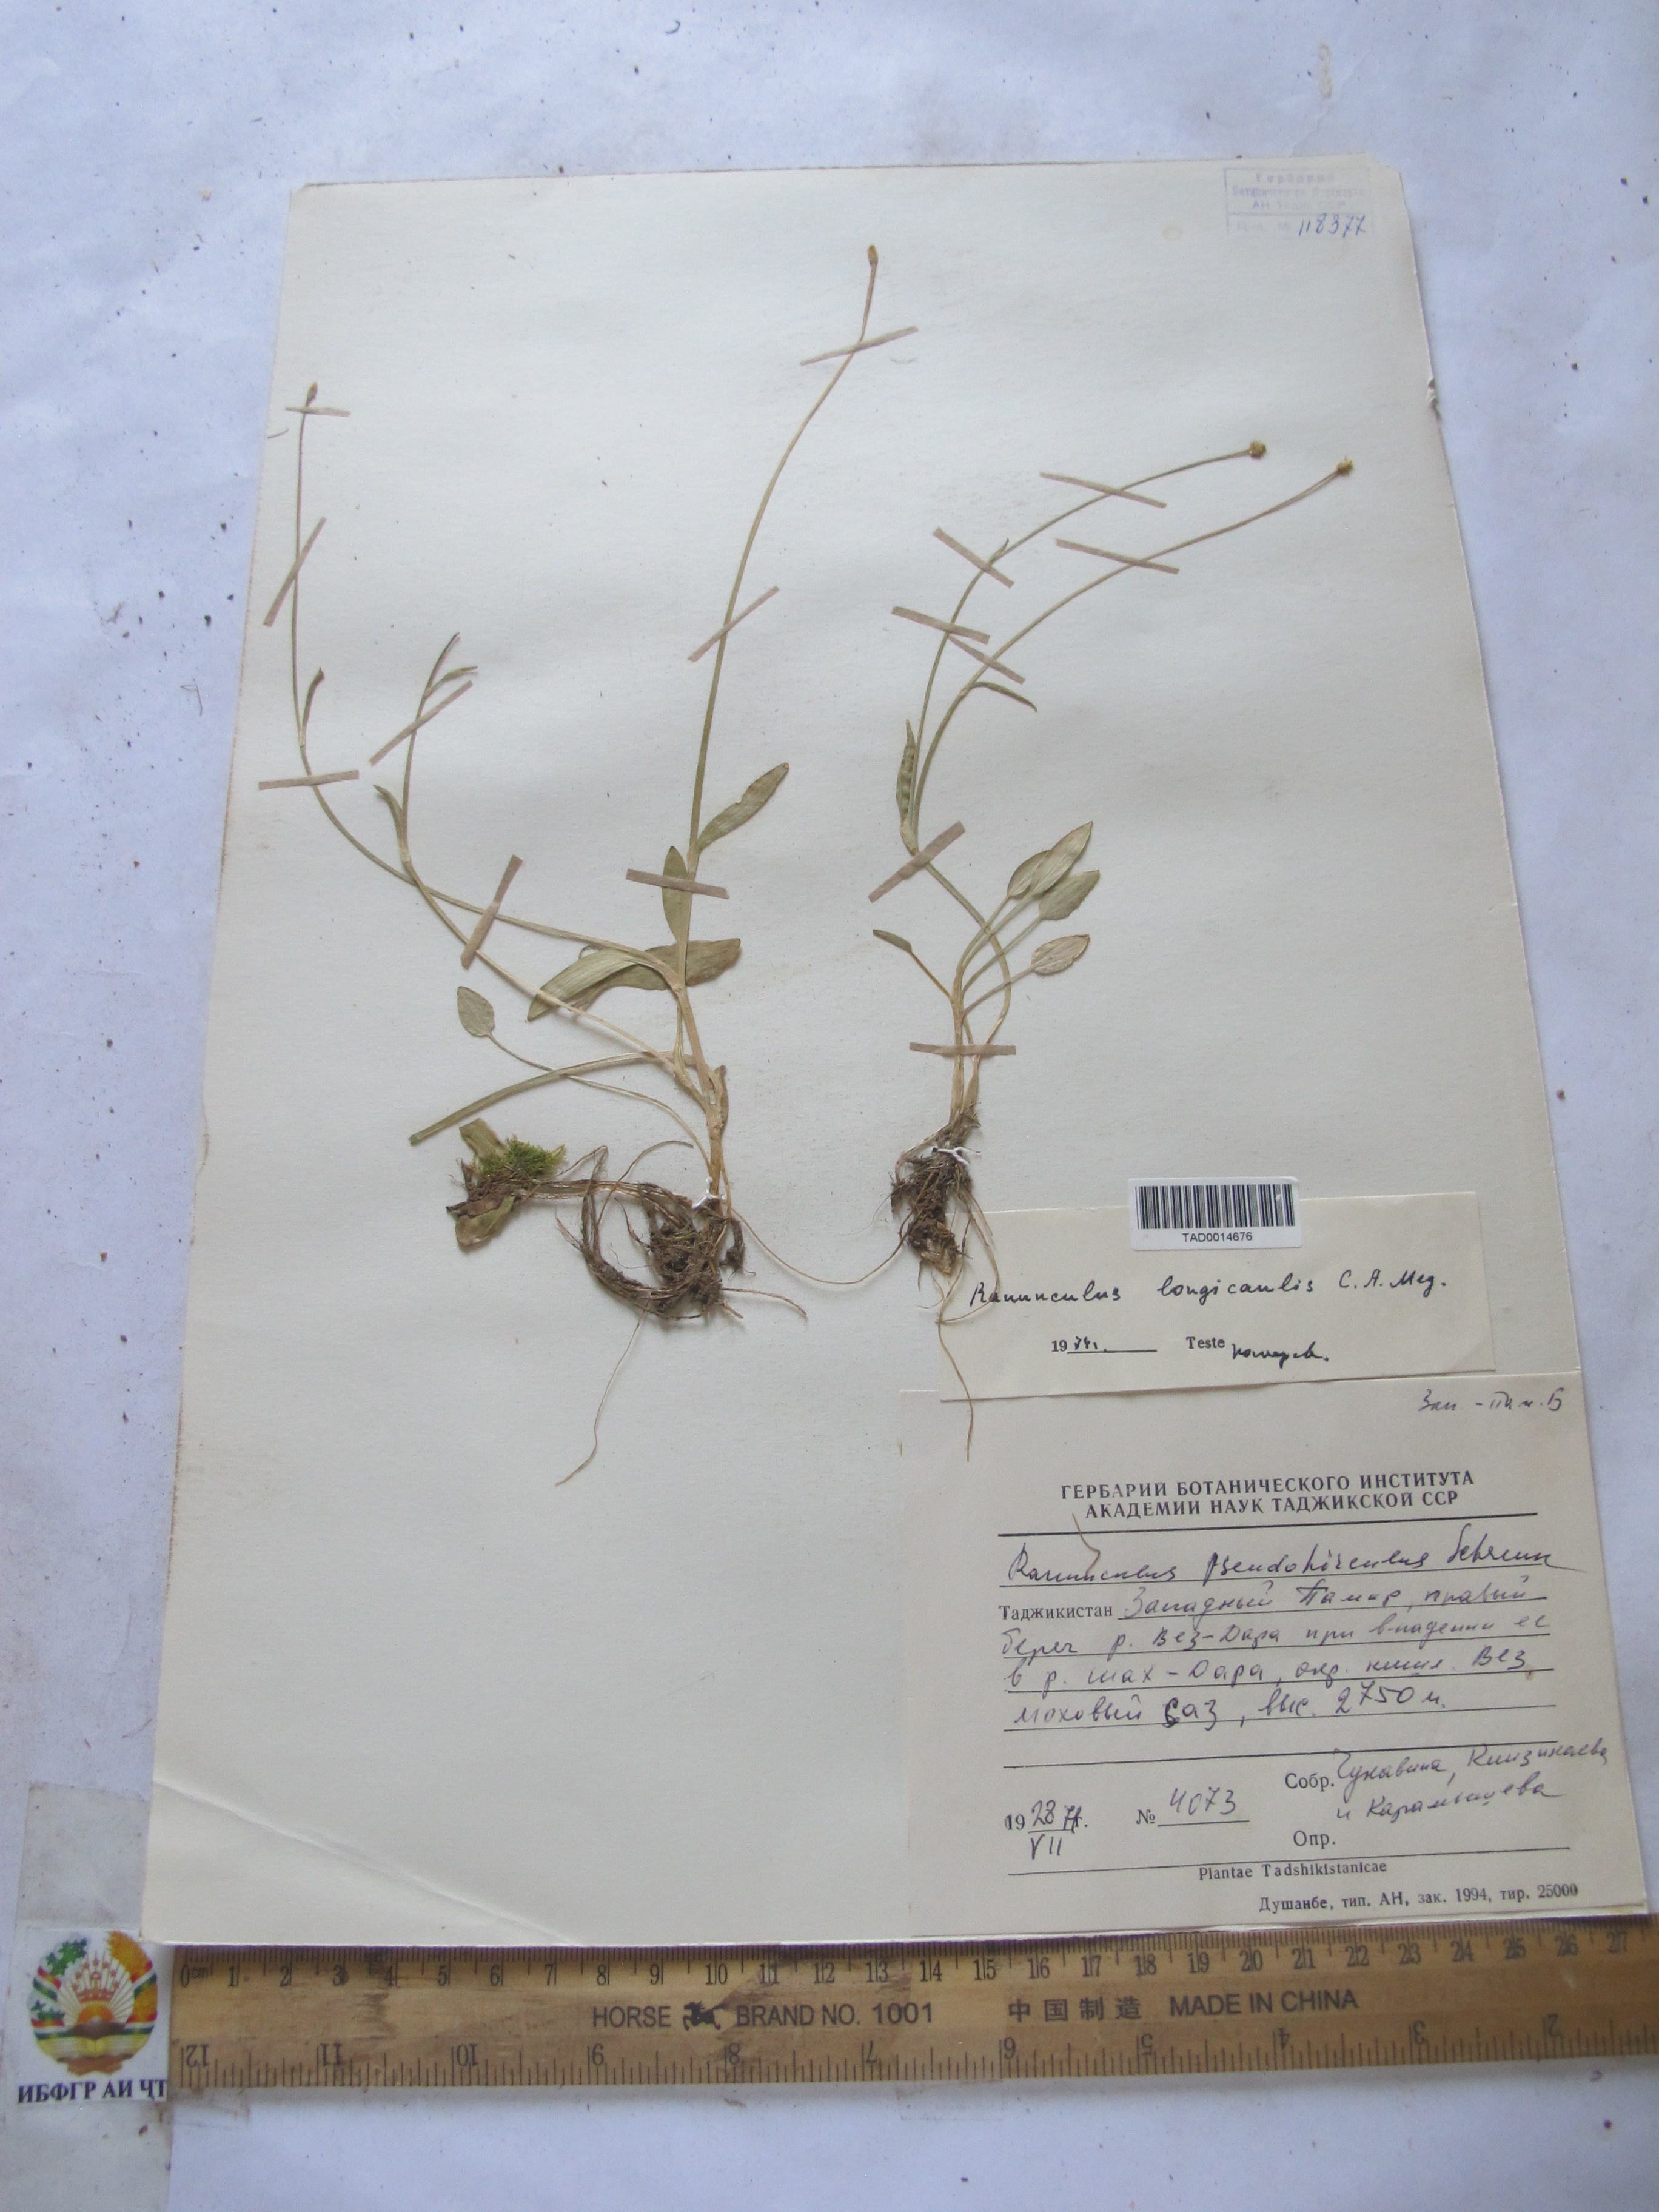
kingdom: Plantae
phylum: Tracheophyta
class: Magnoliopsida
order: Ranunculales
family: Ranunculaceae
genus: Ranunculus
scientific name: Ranunculus pseudohirculus
